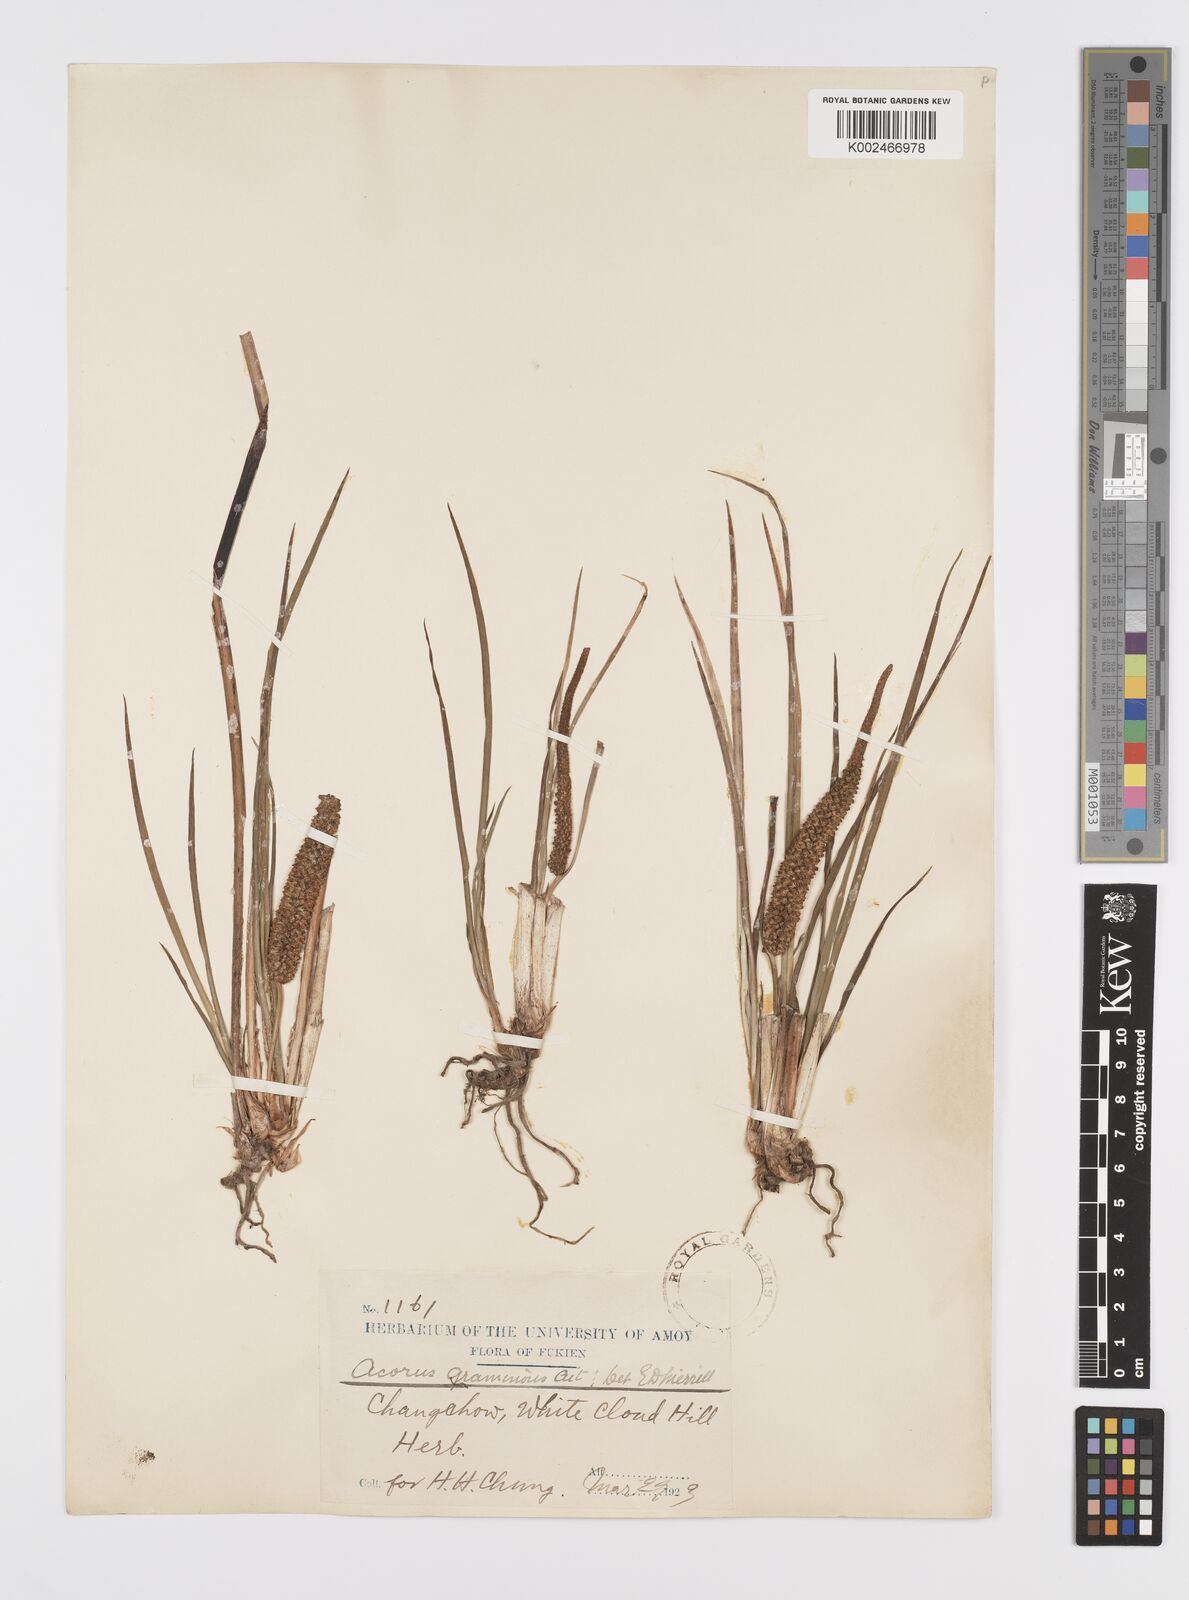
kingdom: Plantae
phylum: Tracheophyta
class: Liliopsida
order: Acorales
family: Acoraceae
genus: Acorus
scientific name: Acorus gramineus
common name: Slender sweet-flag
